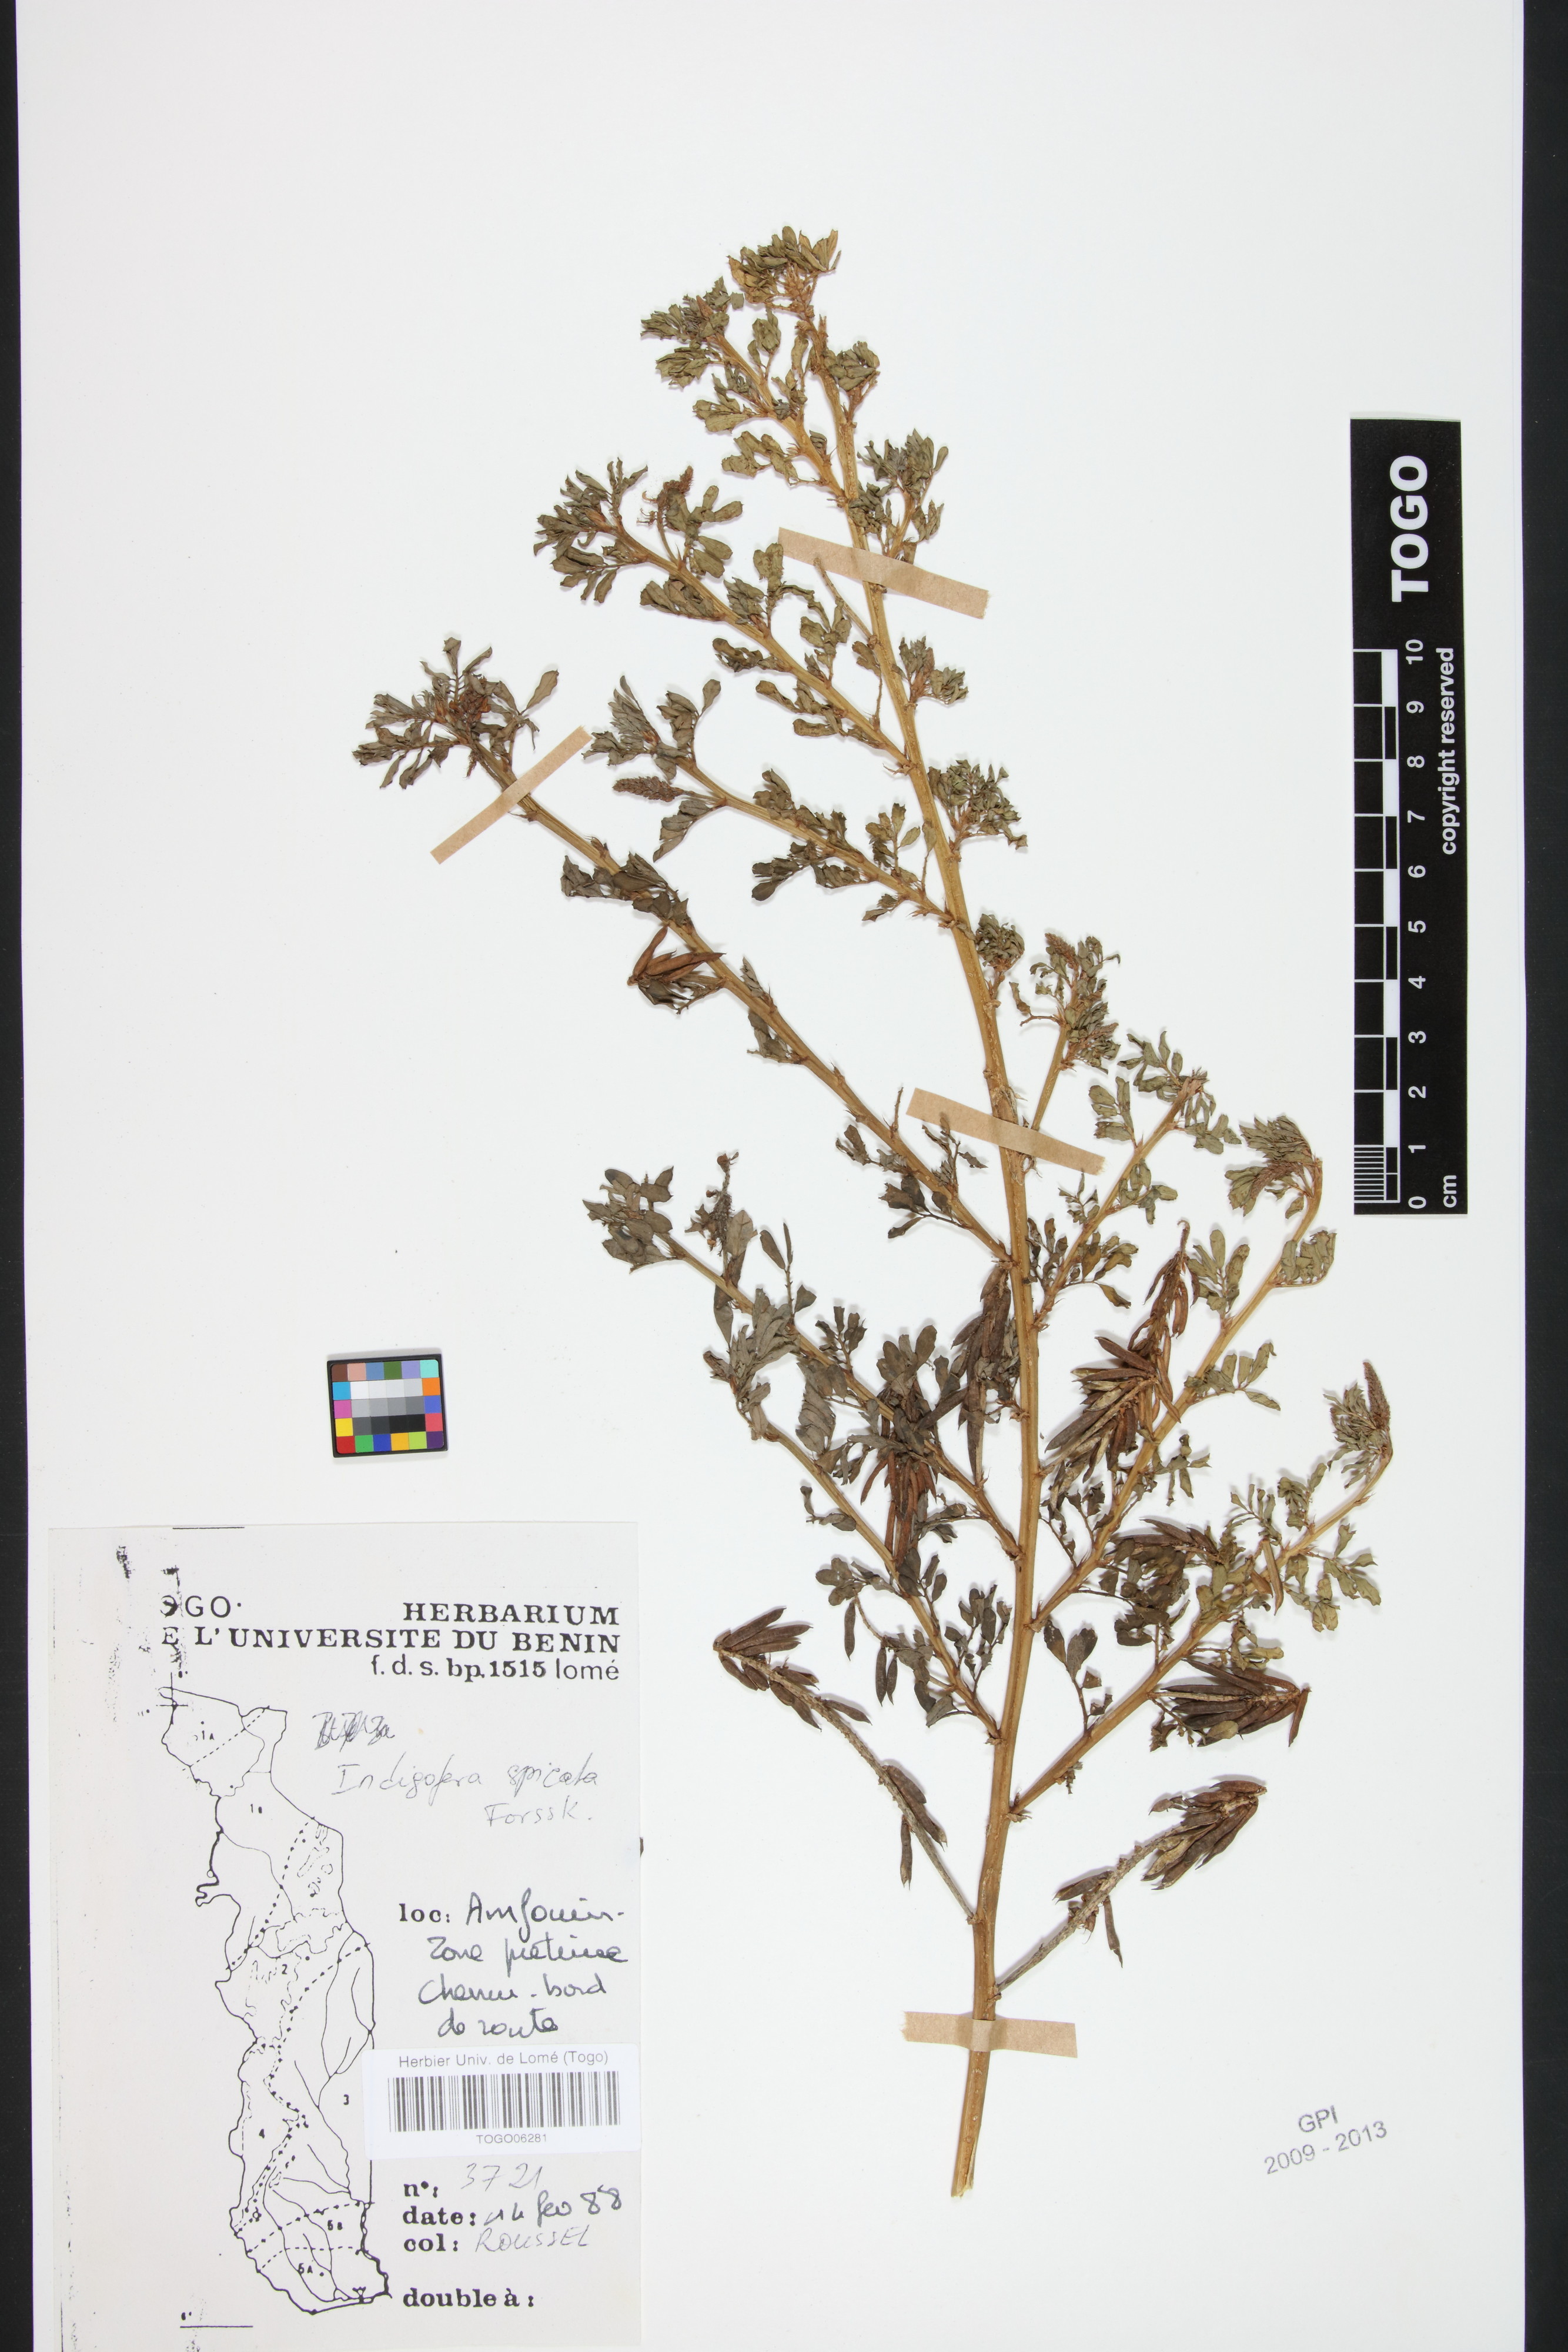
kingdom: Plantae
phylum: Tracheophyta
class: Magnoliopsida
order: Fabales
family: Fabaceae
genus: Indigofera
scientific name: Indigofera spicata
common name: Creeping indigo
